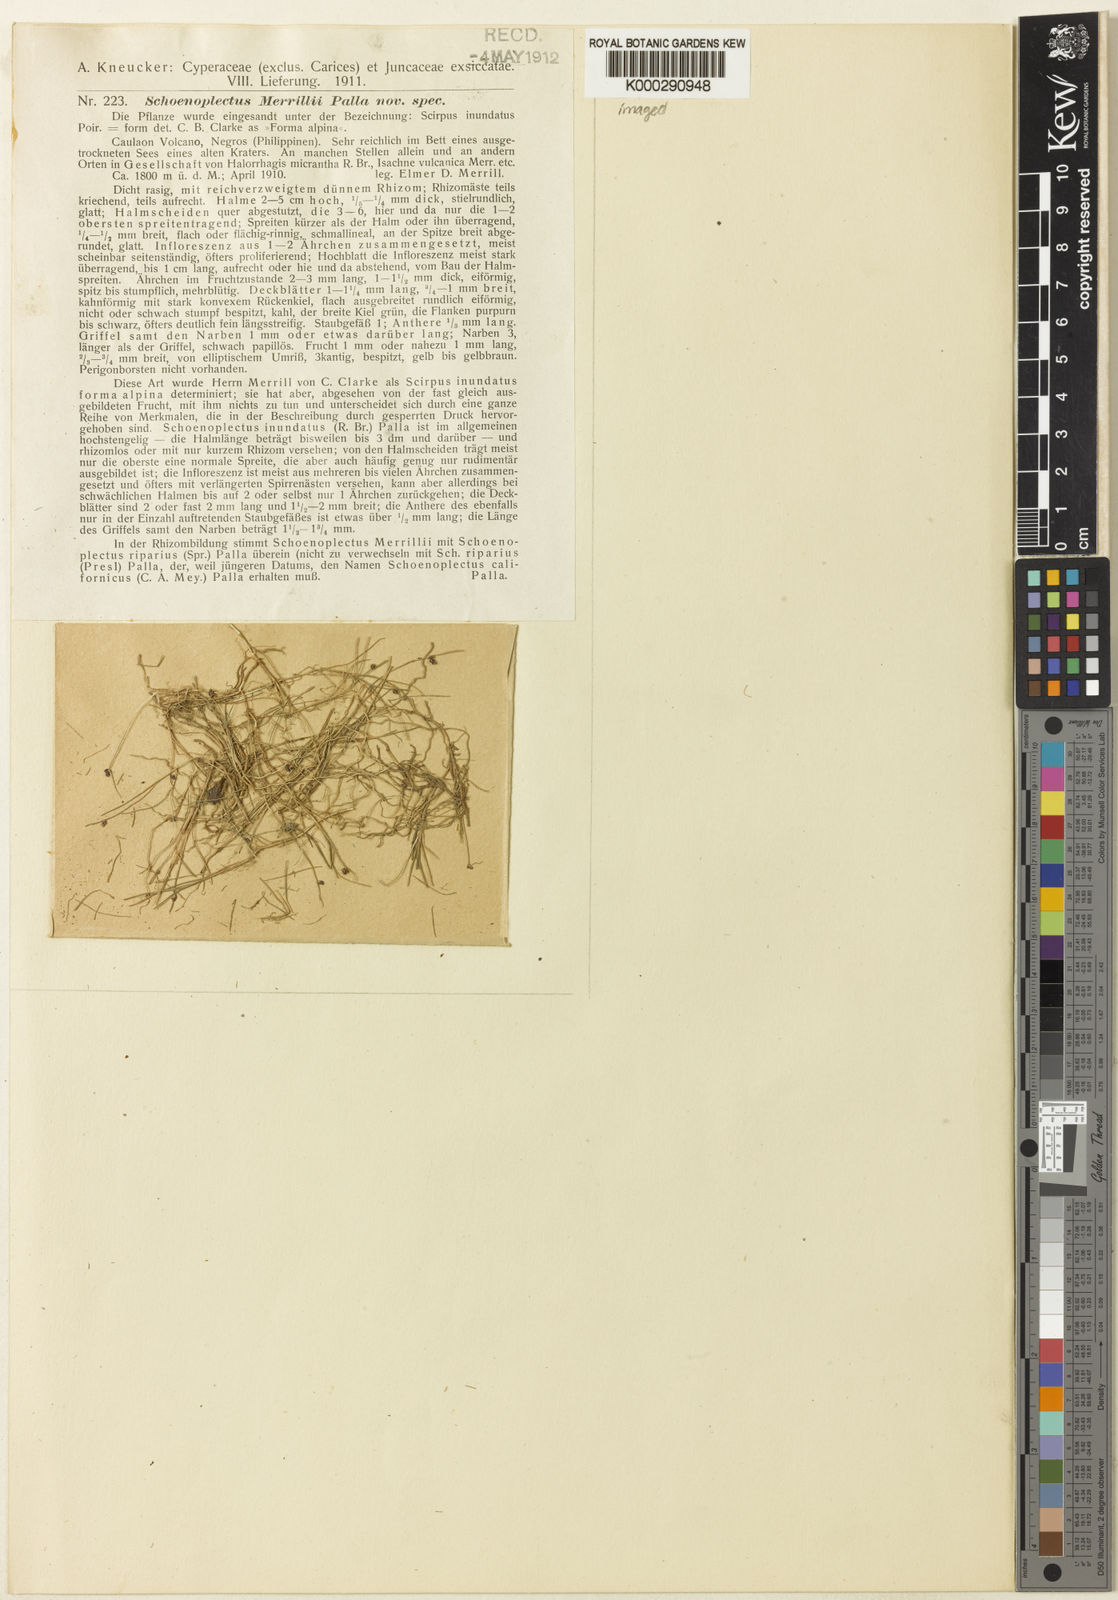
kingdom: Plantae
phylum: Tracheophyta
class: Liliopsida
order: Poales
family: Cyperaceae
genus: Isolepis
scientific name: Isolepis
